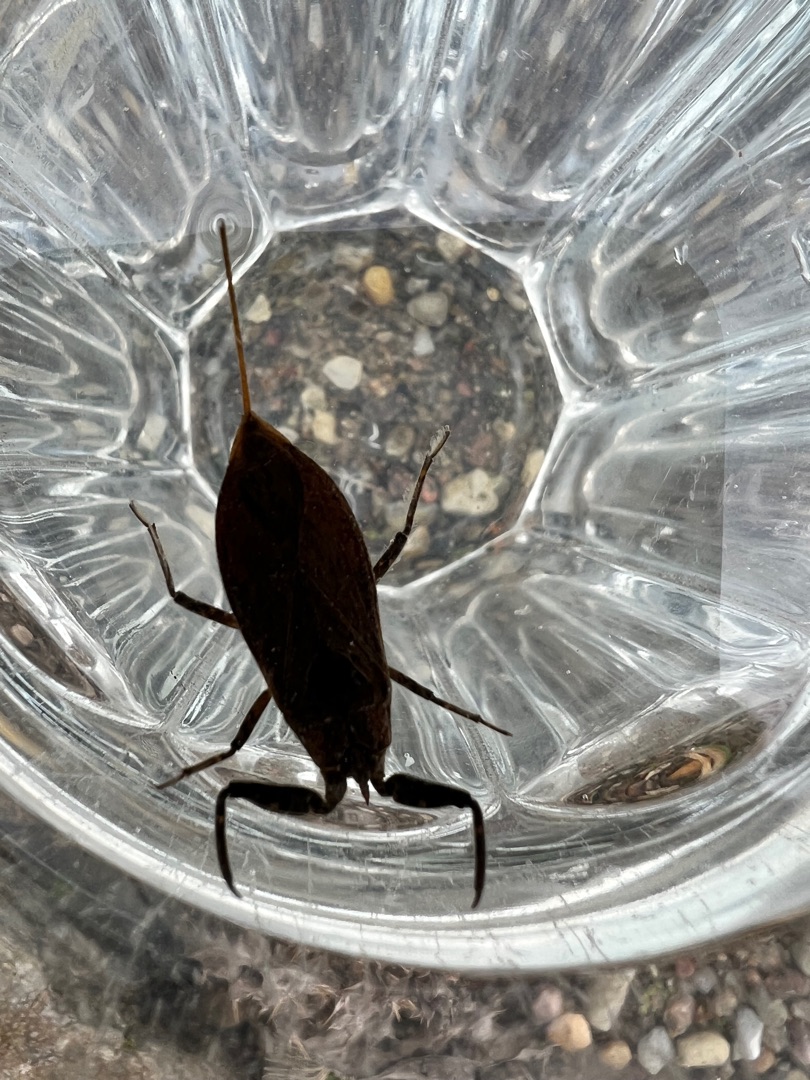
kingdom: Animalia
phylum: Arthropoda
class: Insecta
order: Hemiptera
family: Nepidae
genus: Nepa
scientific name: Nepa cinerea
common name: Skorpiontæge
